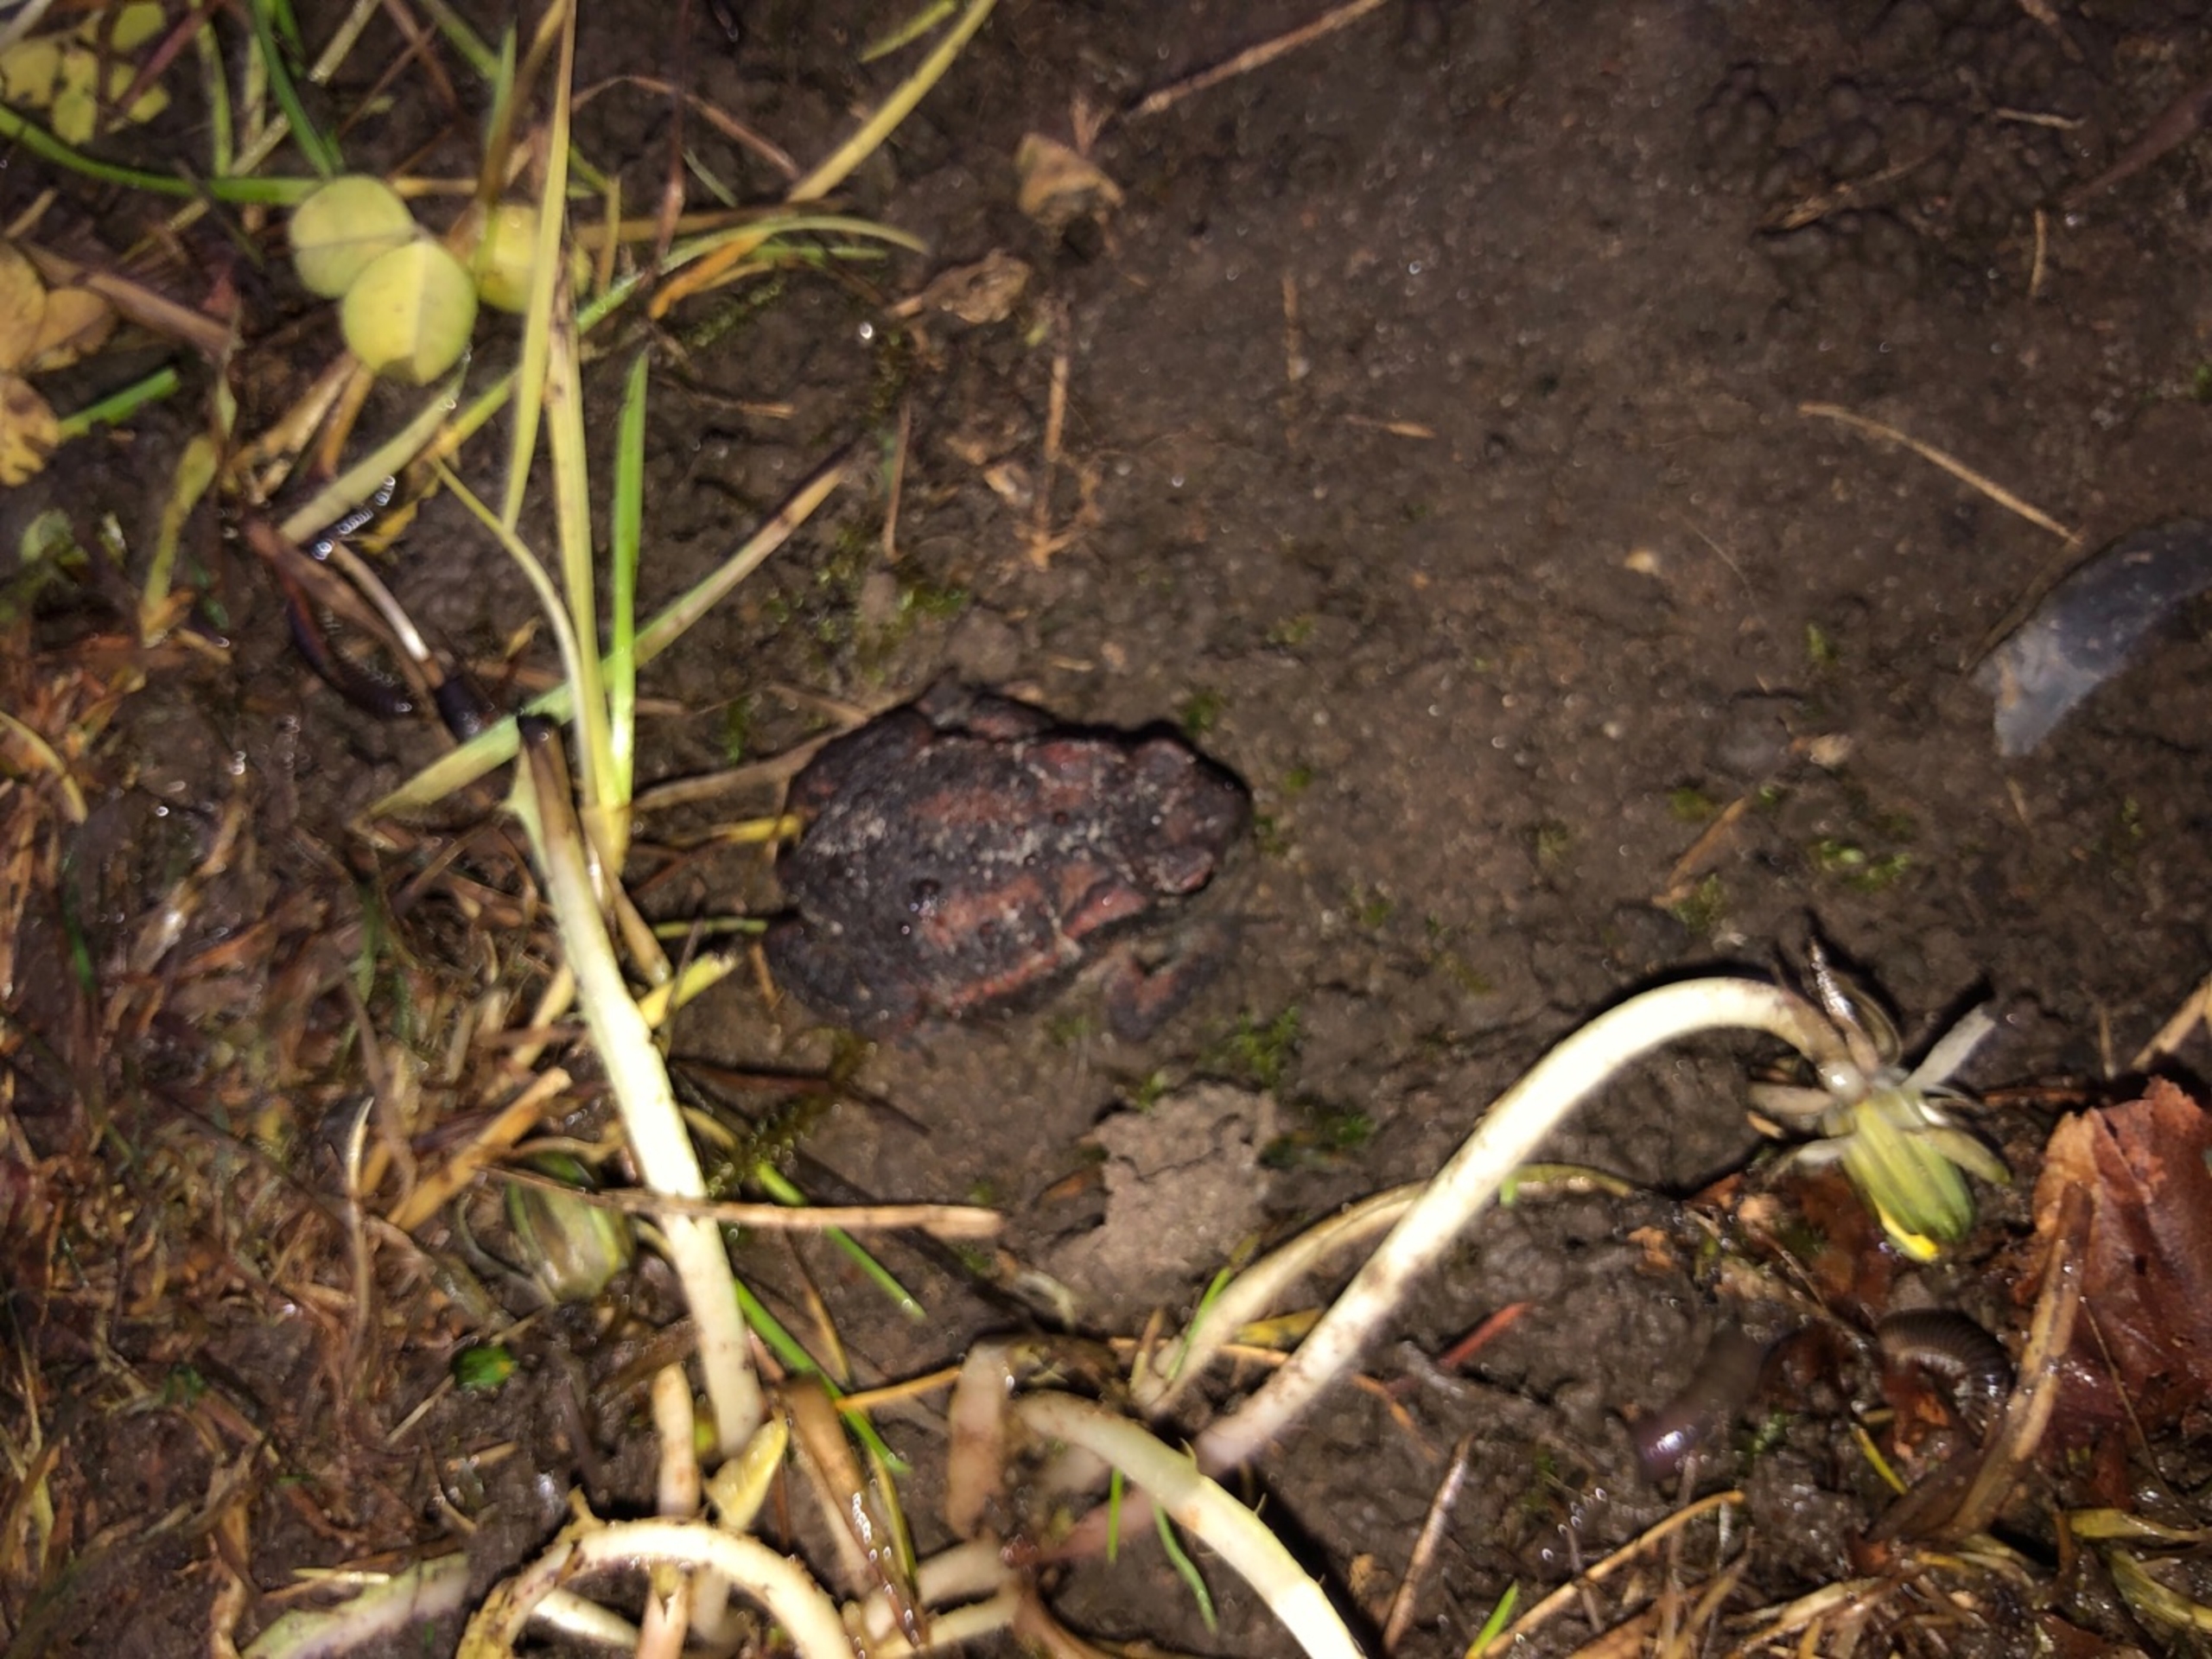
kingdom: Animalia
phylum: Chordata
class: Amphibia
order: Anura
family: Bufonidae
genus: Bufo
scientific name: Bufo bufo
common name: Skrubtudse
